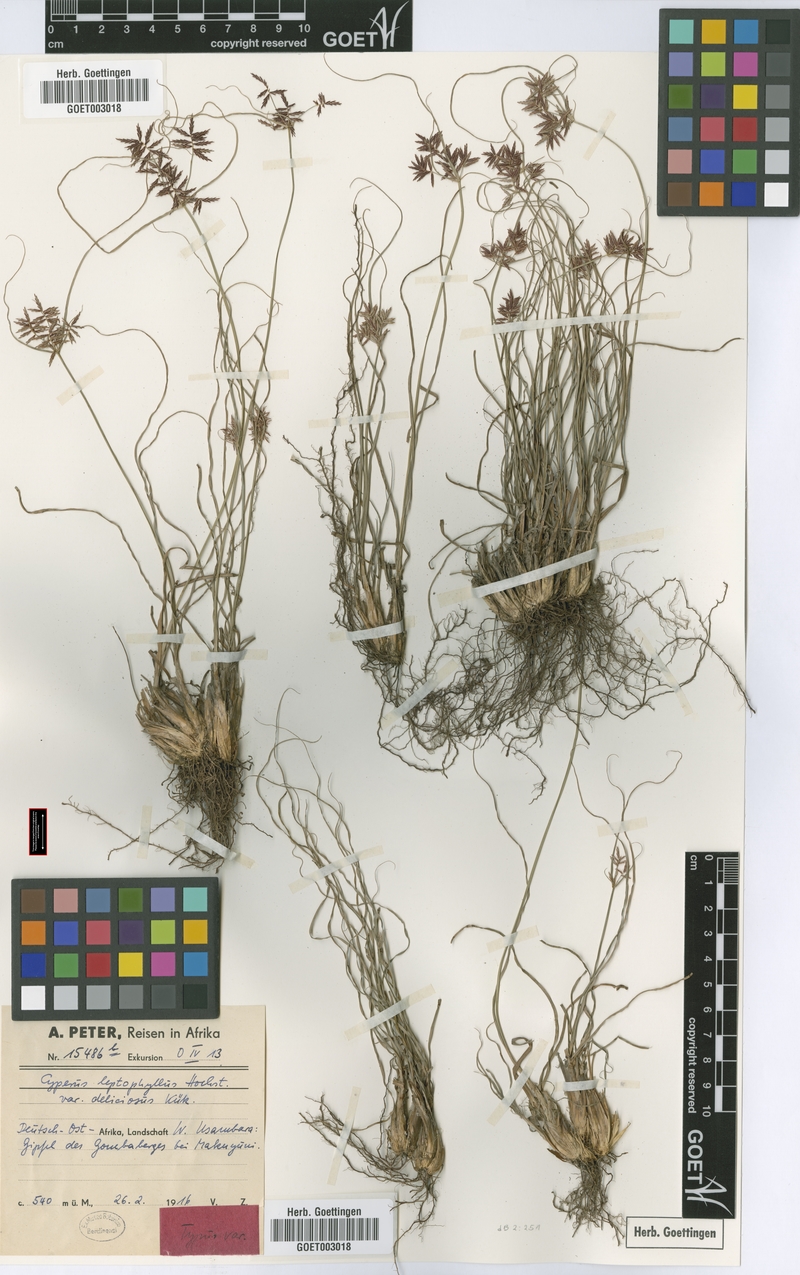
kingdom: Plantae
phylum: Tracheophyta
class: Liliopsida
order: Poales
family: Cyperaceae
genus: Cyperus
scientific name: Cyperus amauropus
